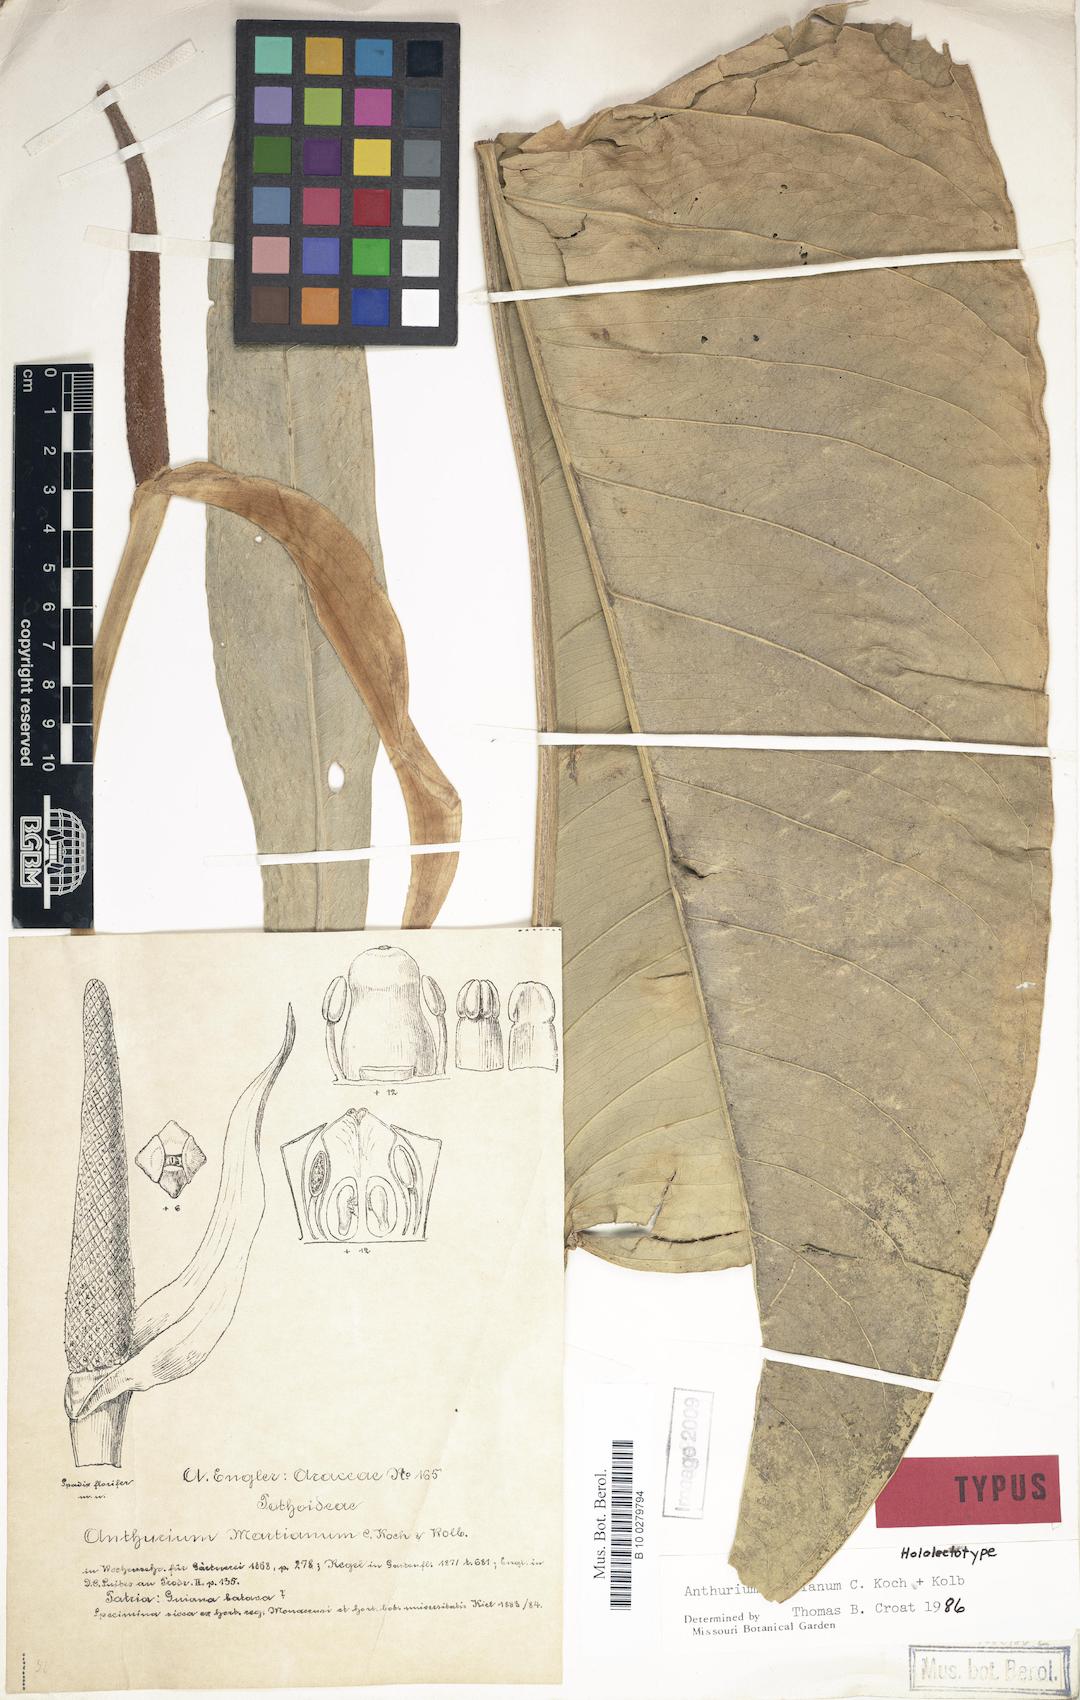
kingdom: Plantae
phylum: Tracheophyta
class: Liliopsida
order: Alismatales
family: Araceae
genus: Anthurium
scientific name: Anthurium martianum
